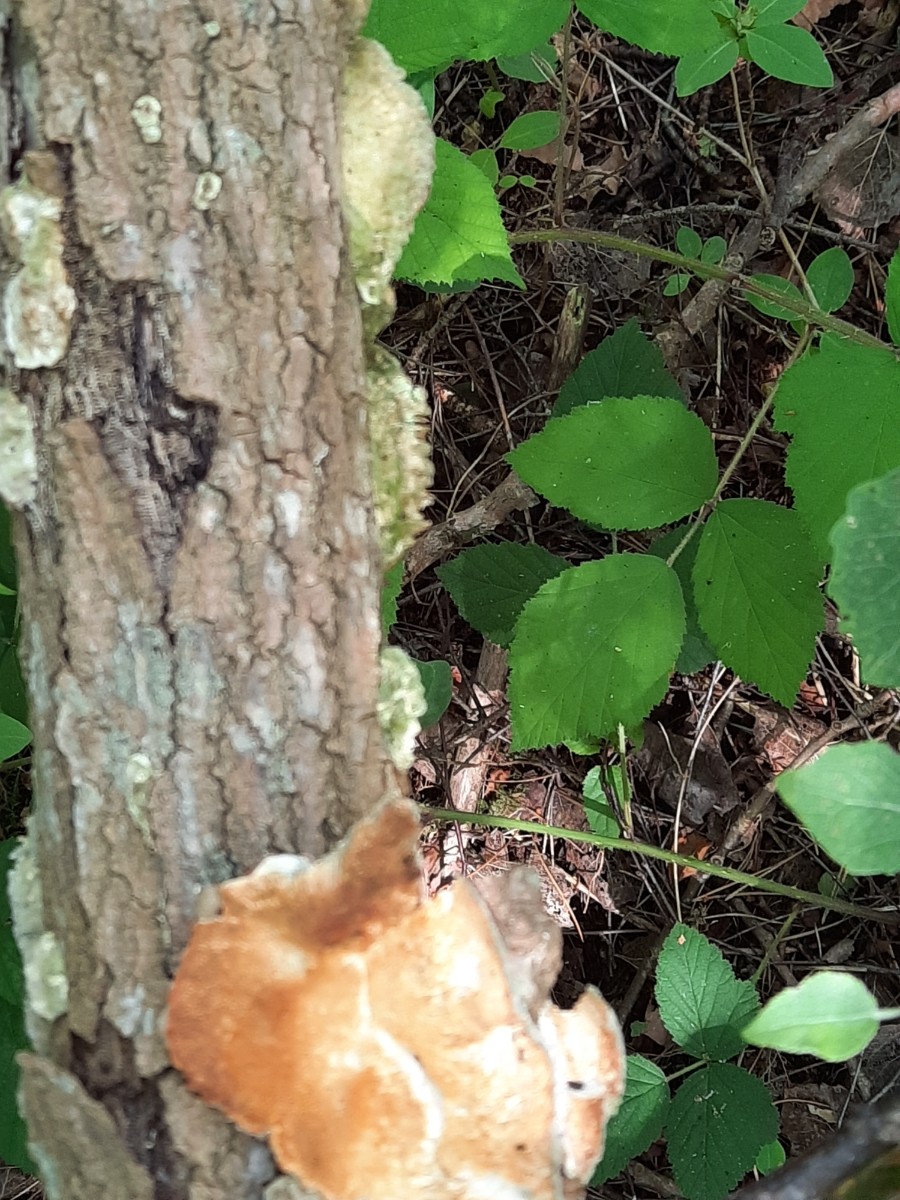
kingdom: Fungi
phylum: Basidiomycota
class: Agaricomycetes
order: Polyporales
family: Polyporaceae
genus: Trametes
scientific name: Trametes ochracea
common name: bæltet læderporesvamp
